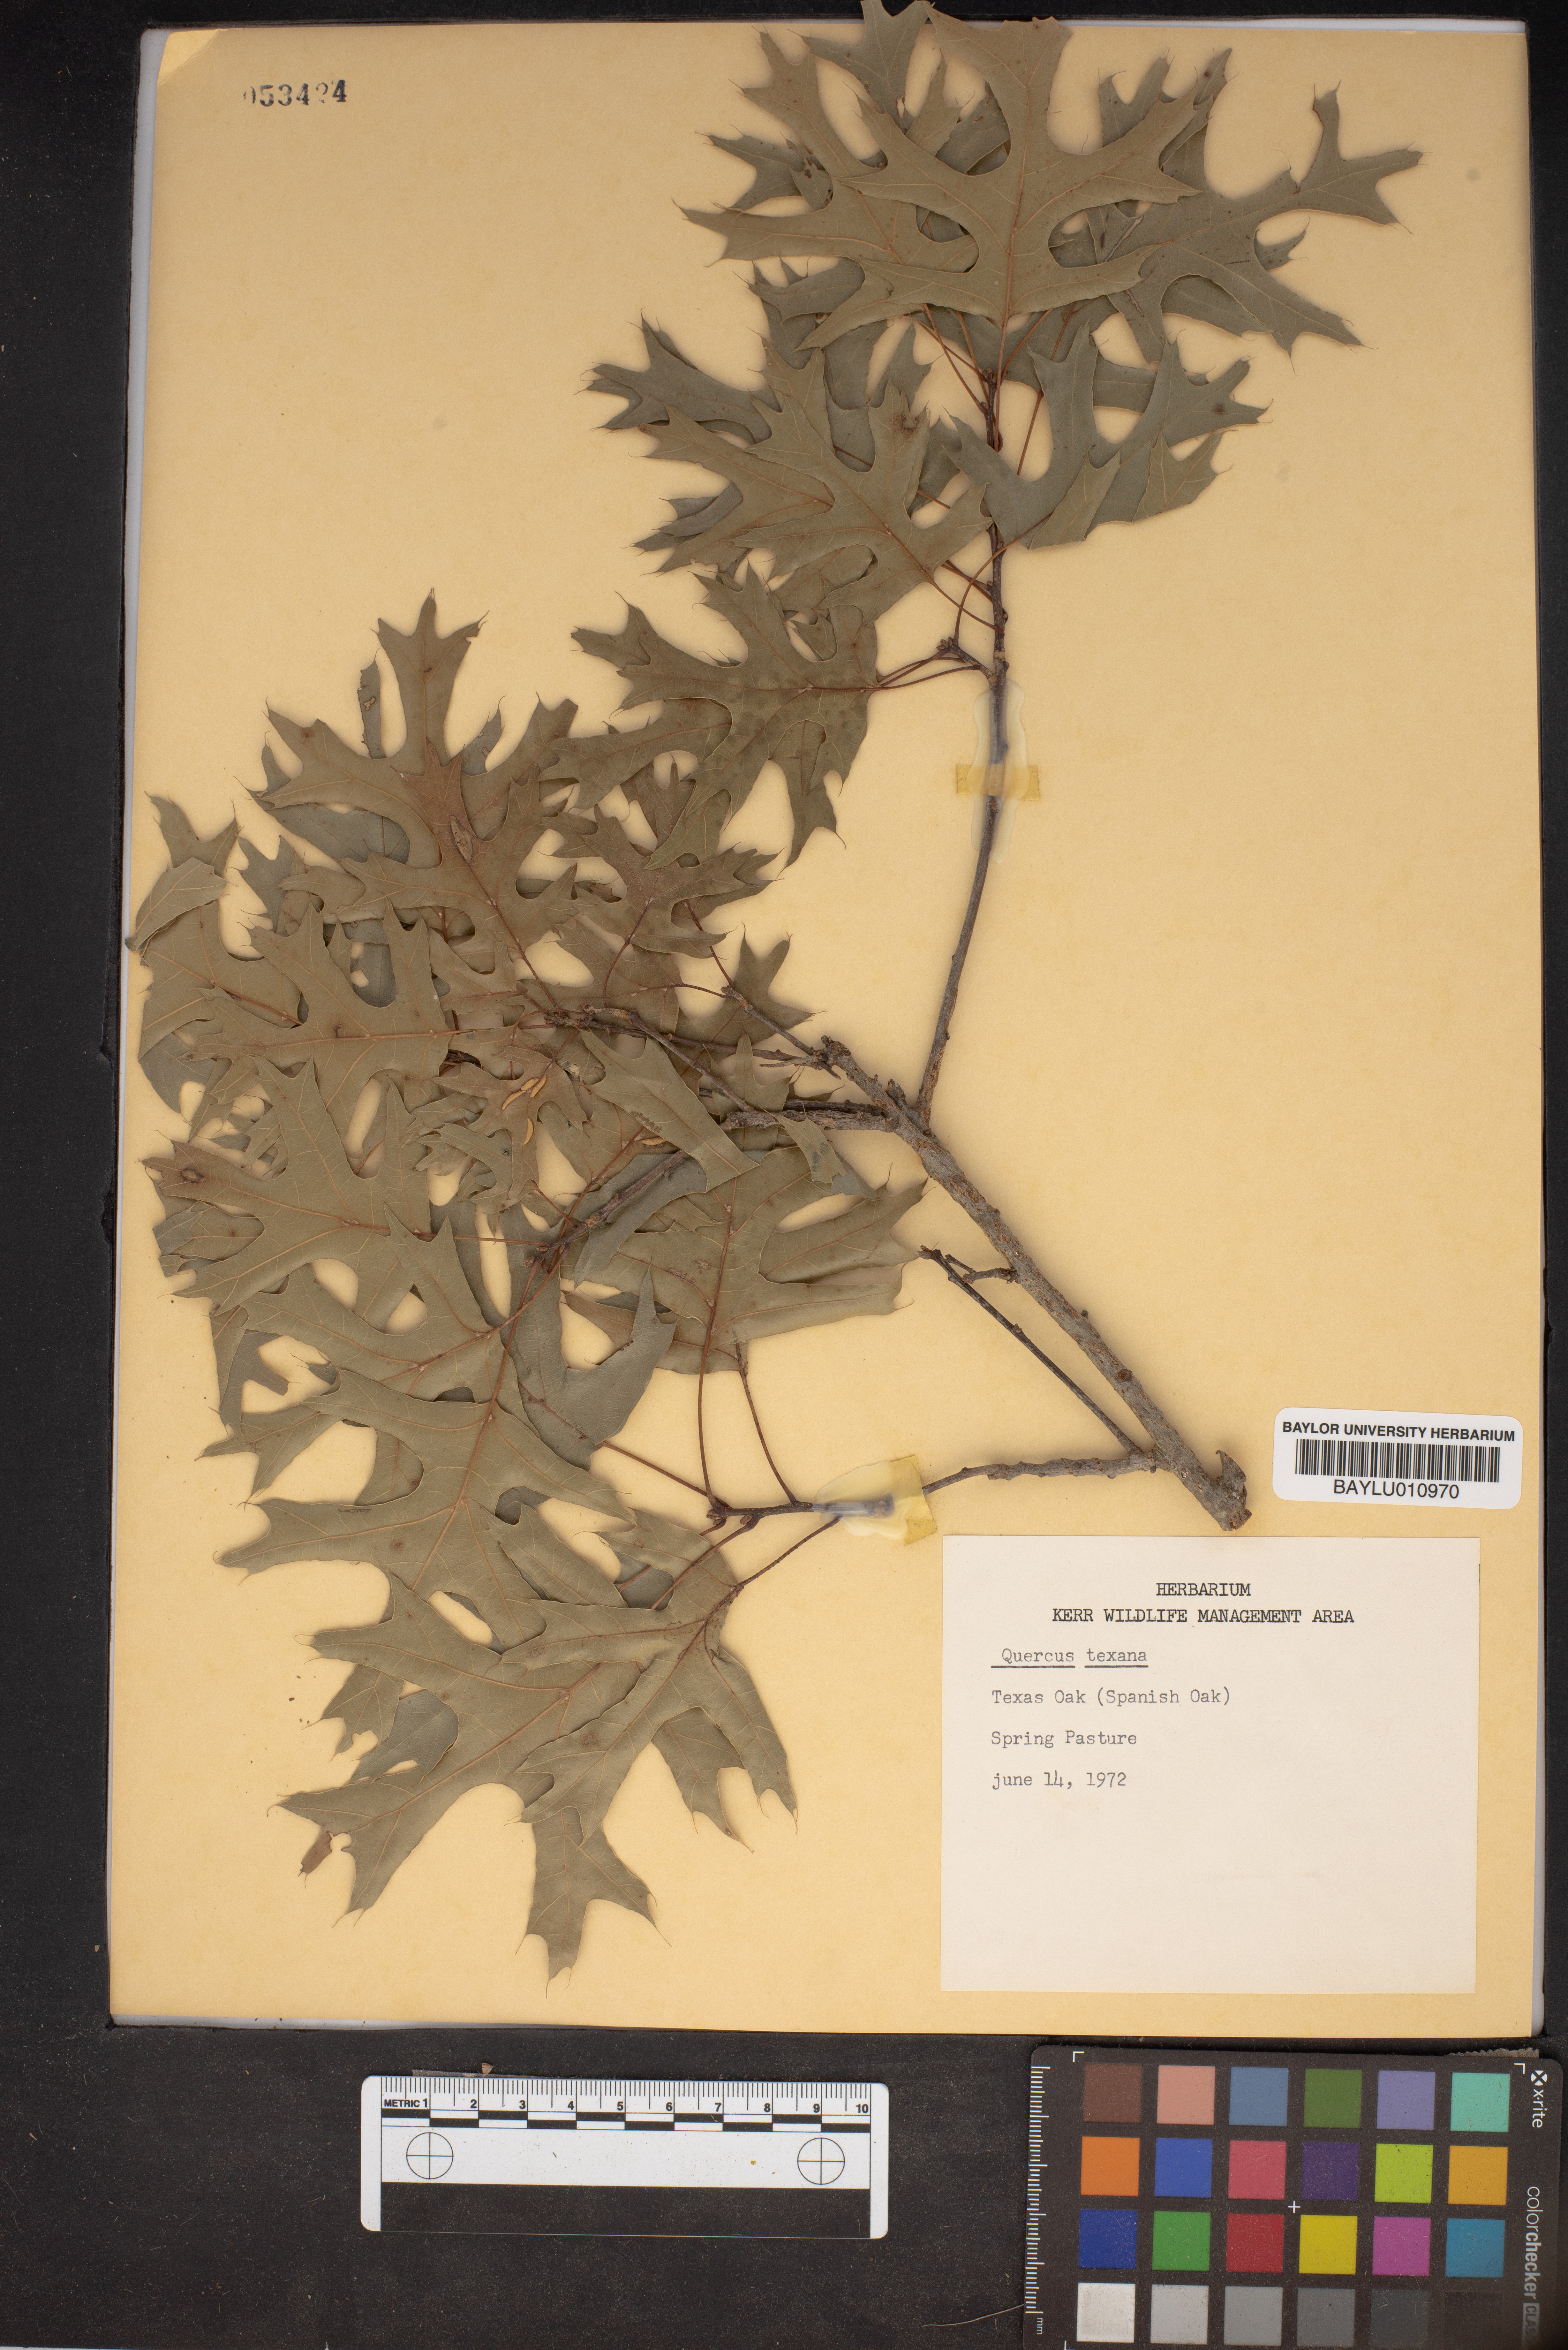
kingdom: Plantae
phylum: Tracheophyta
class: Magnoliopsida
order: Fagales
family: Fagaceae
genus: Quercus
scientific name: Quercus texana
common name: Nuttall oak
